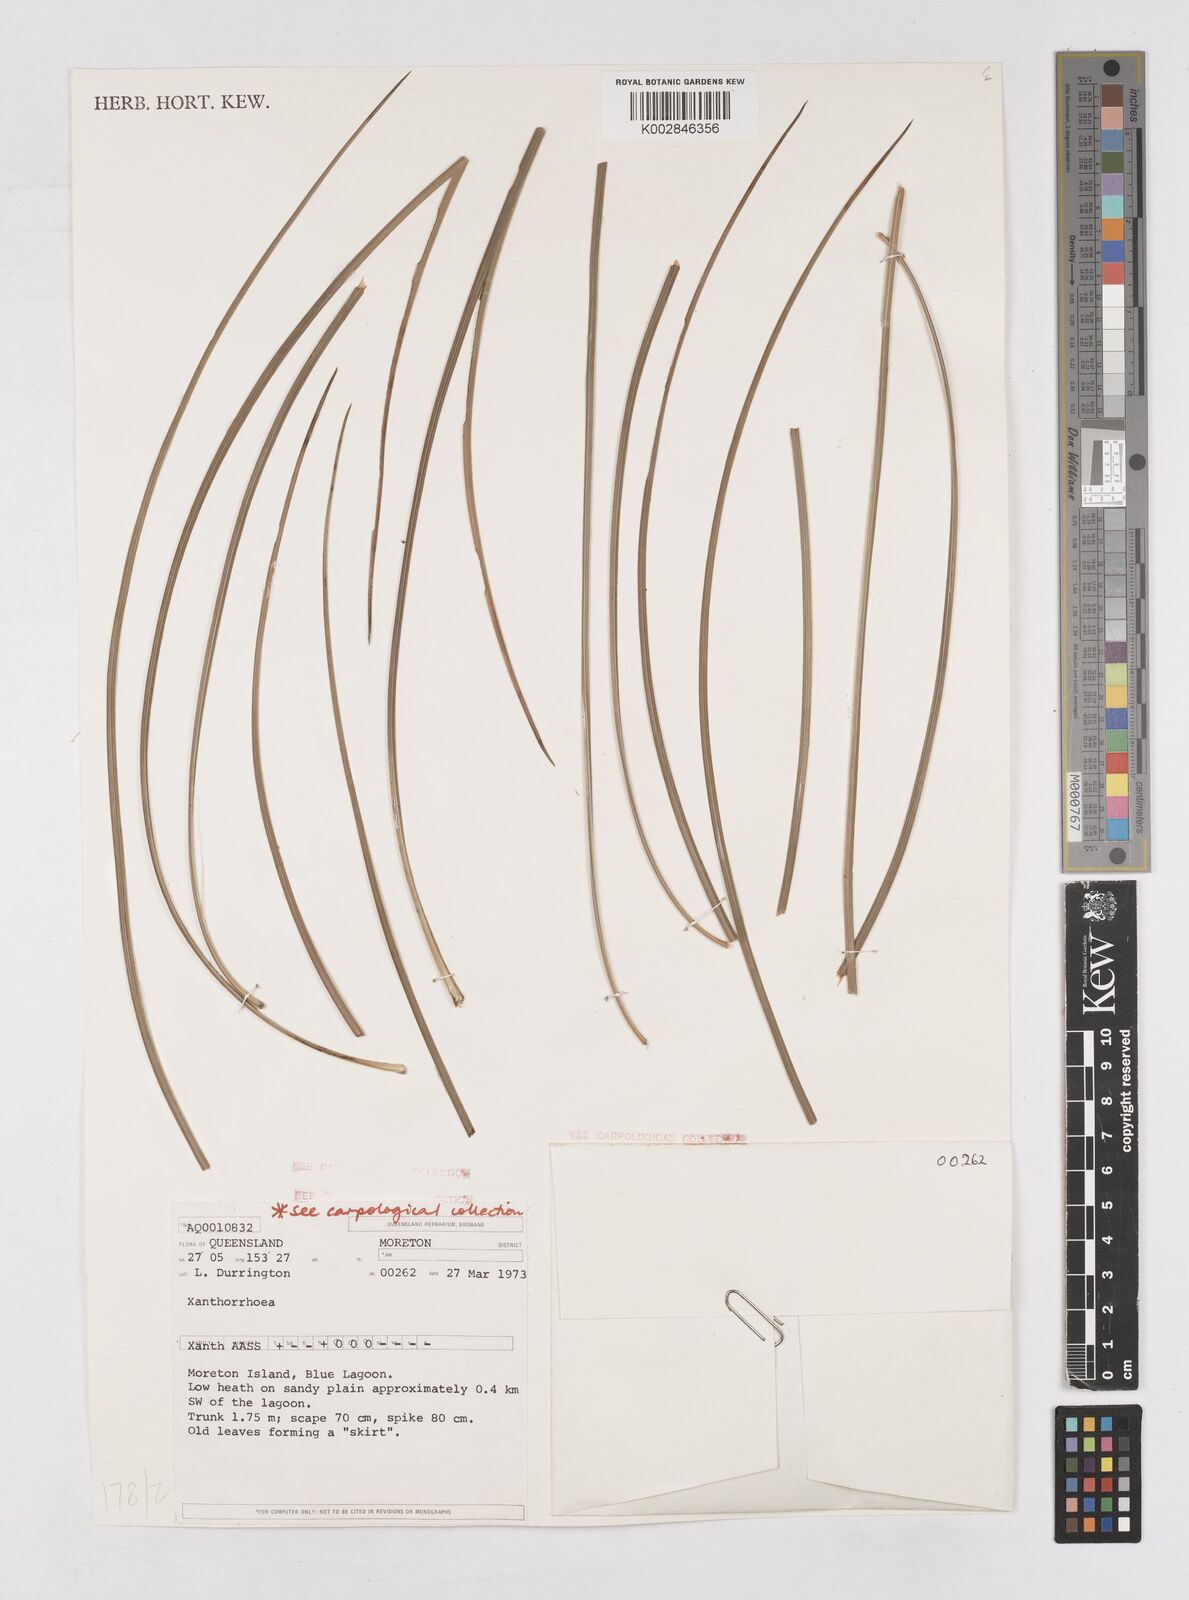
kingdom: Plantae
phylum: Tracheophyta
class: Liliopsida
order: Asparagales
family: Asphodelaceae
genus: Xanthorrhoea
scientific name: Xanthorrhoea
